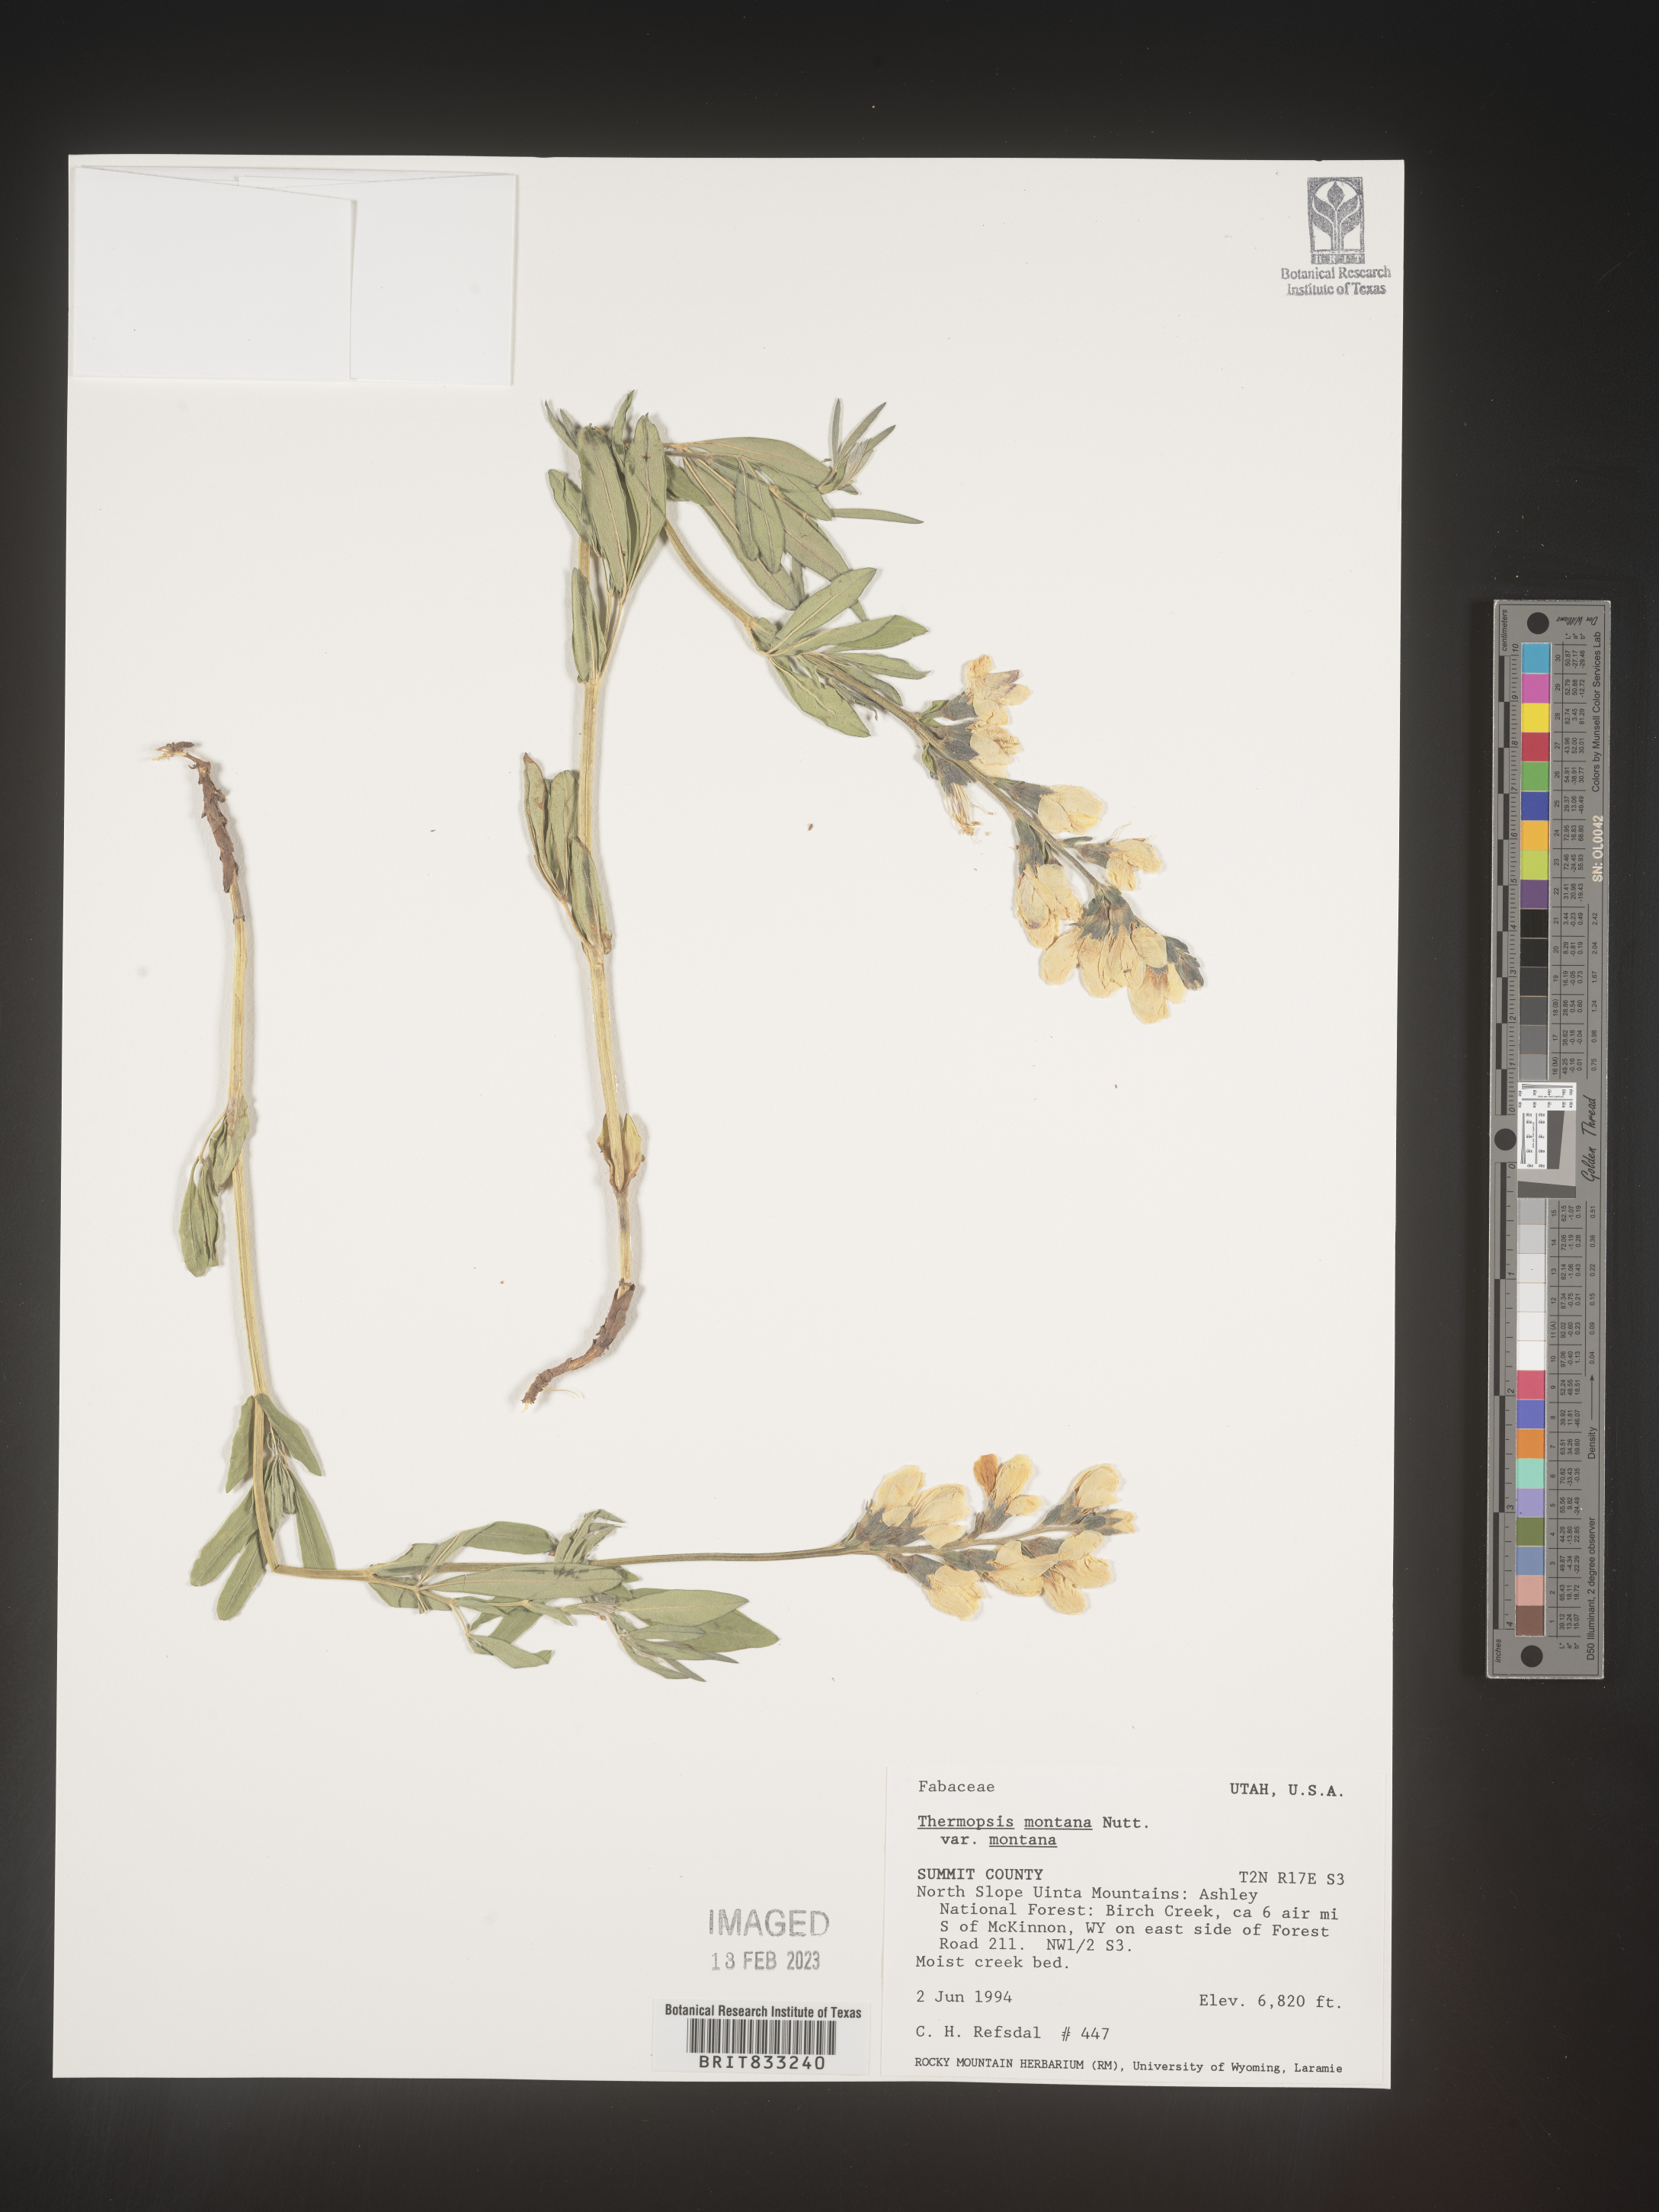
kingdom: Plantae
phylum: Tracheophyta
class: Magnoliopsida
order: Fabales
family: Fabaceae
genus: Thermopsis
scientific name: Thermopsis montana
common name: False lupin
